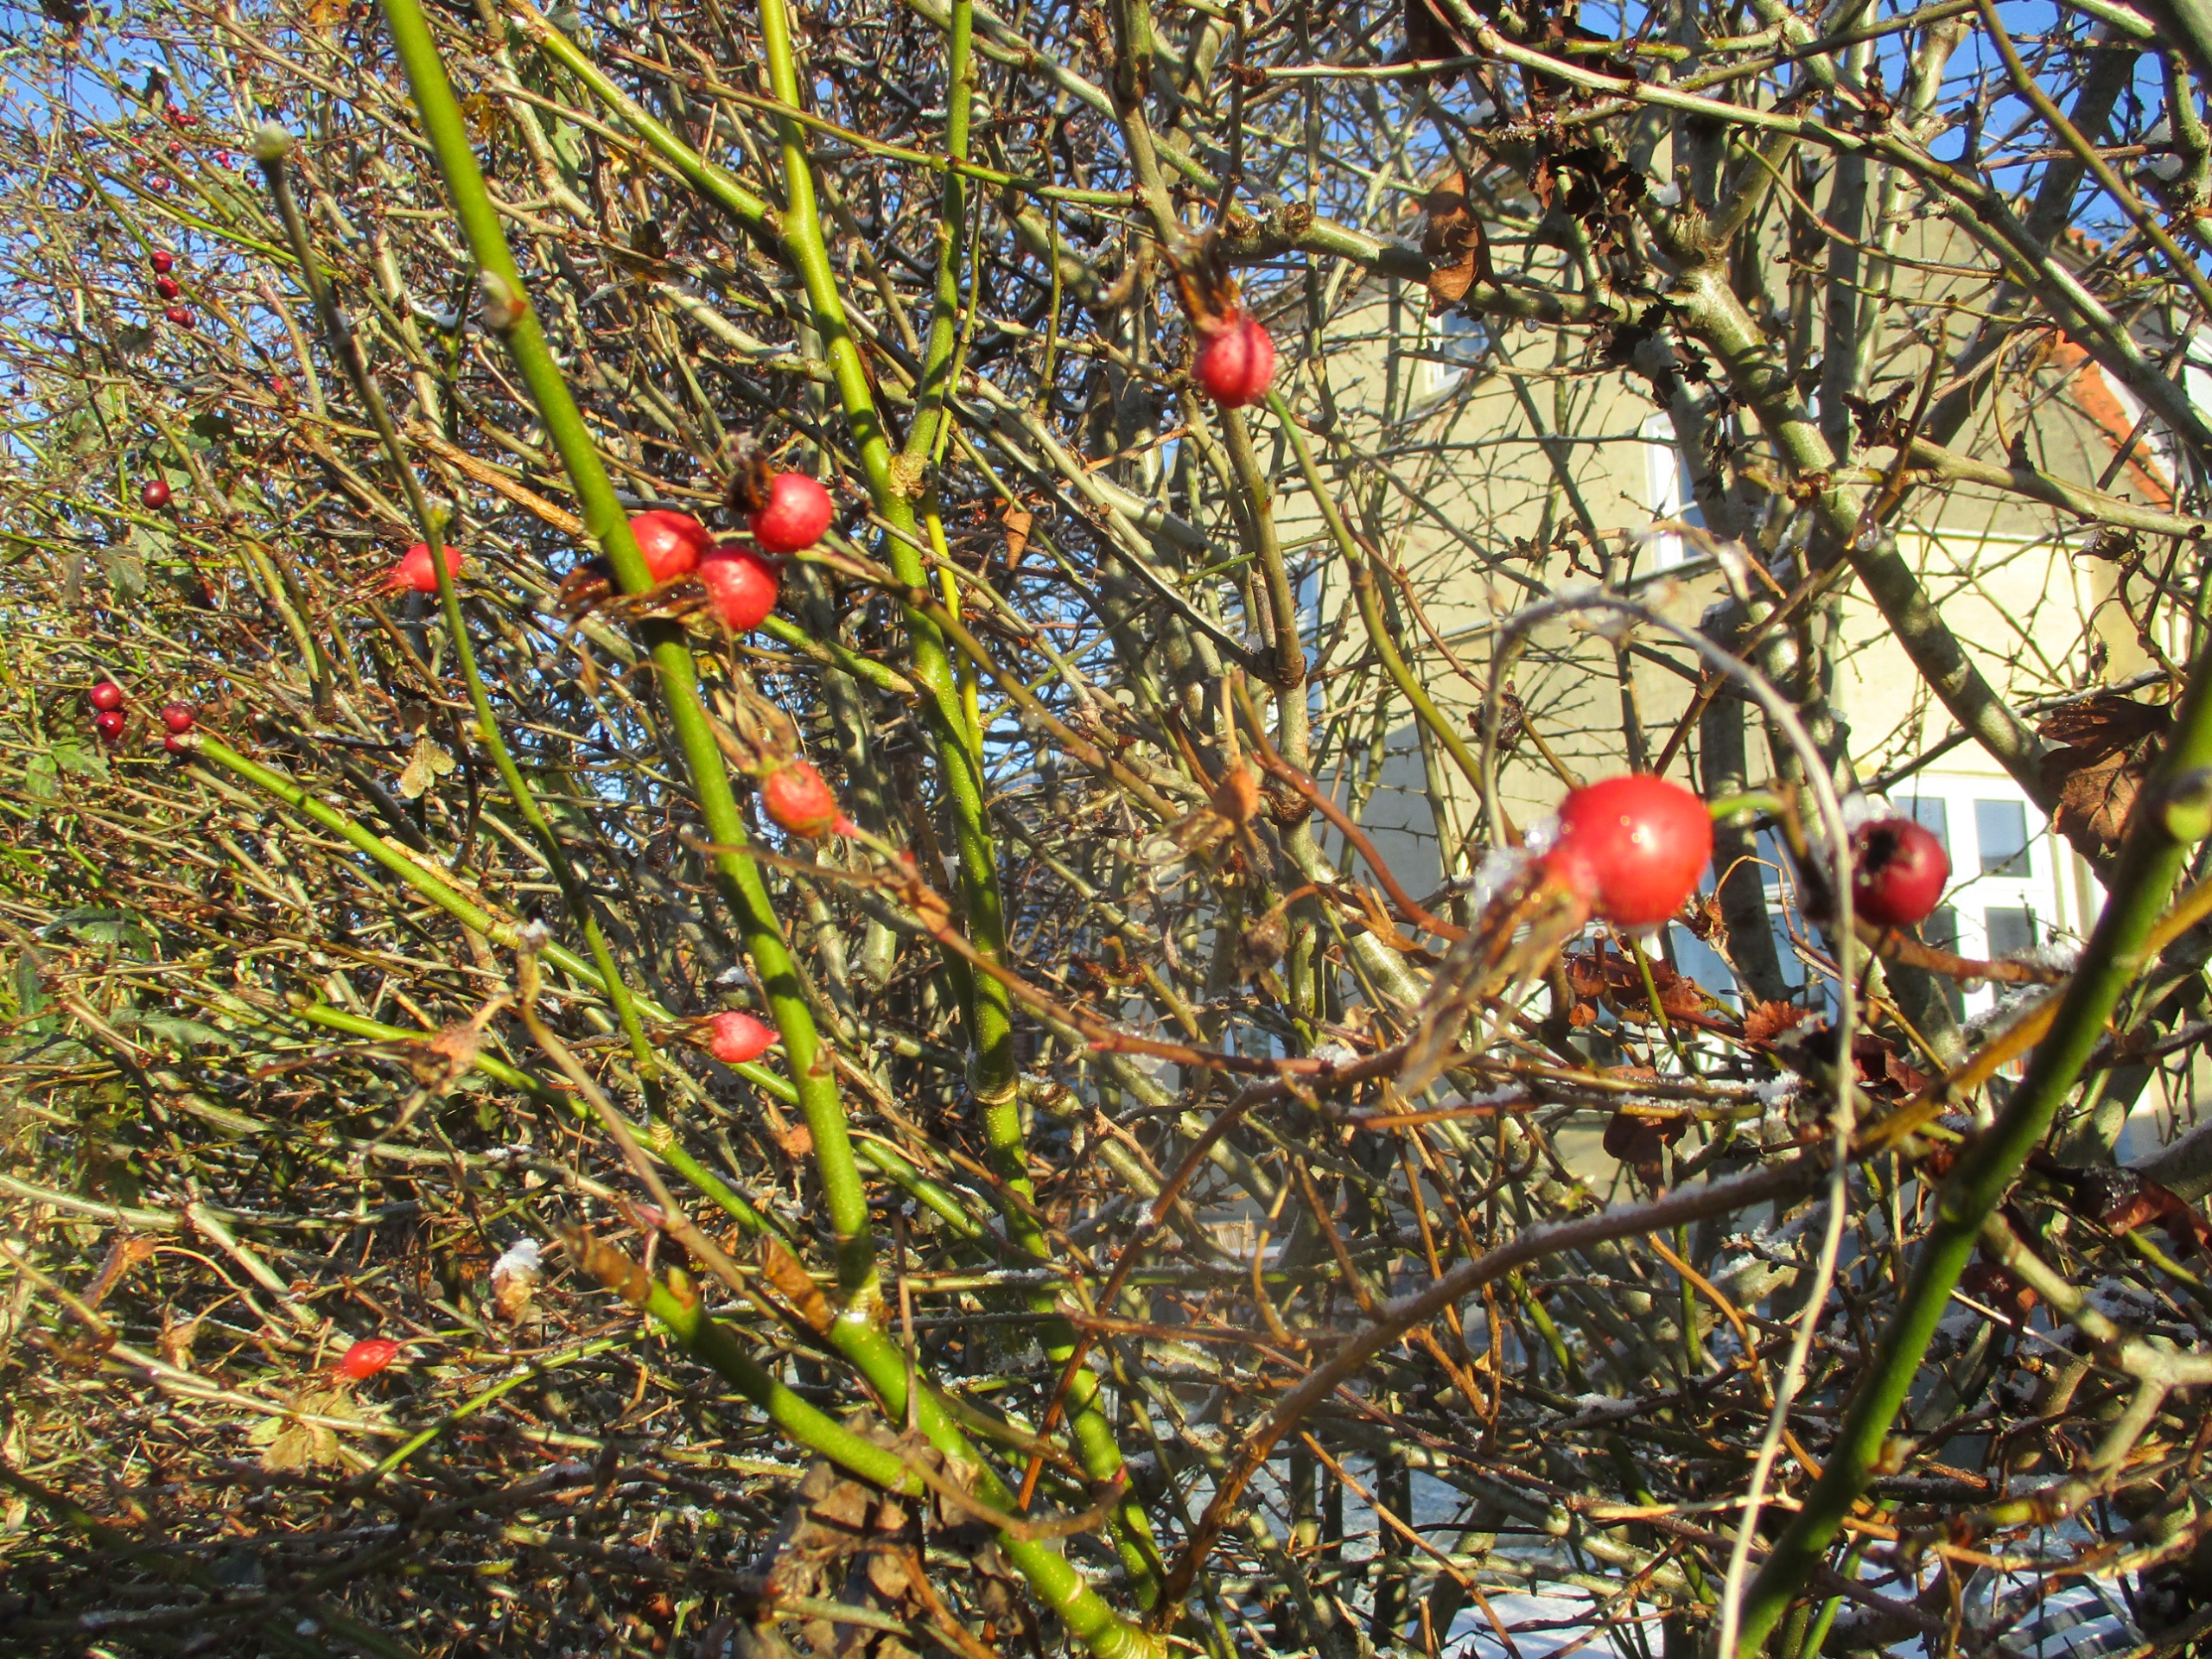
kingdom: Plantae
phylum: Tracheophyta
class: Magnoliopsida
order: Rosales
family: Rosaceae
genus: Rosa
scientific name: Rosa
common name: Roseslægten
